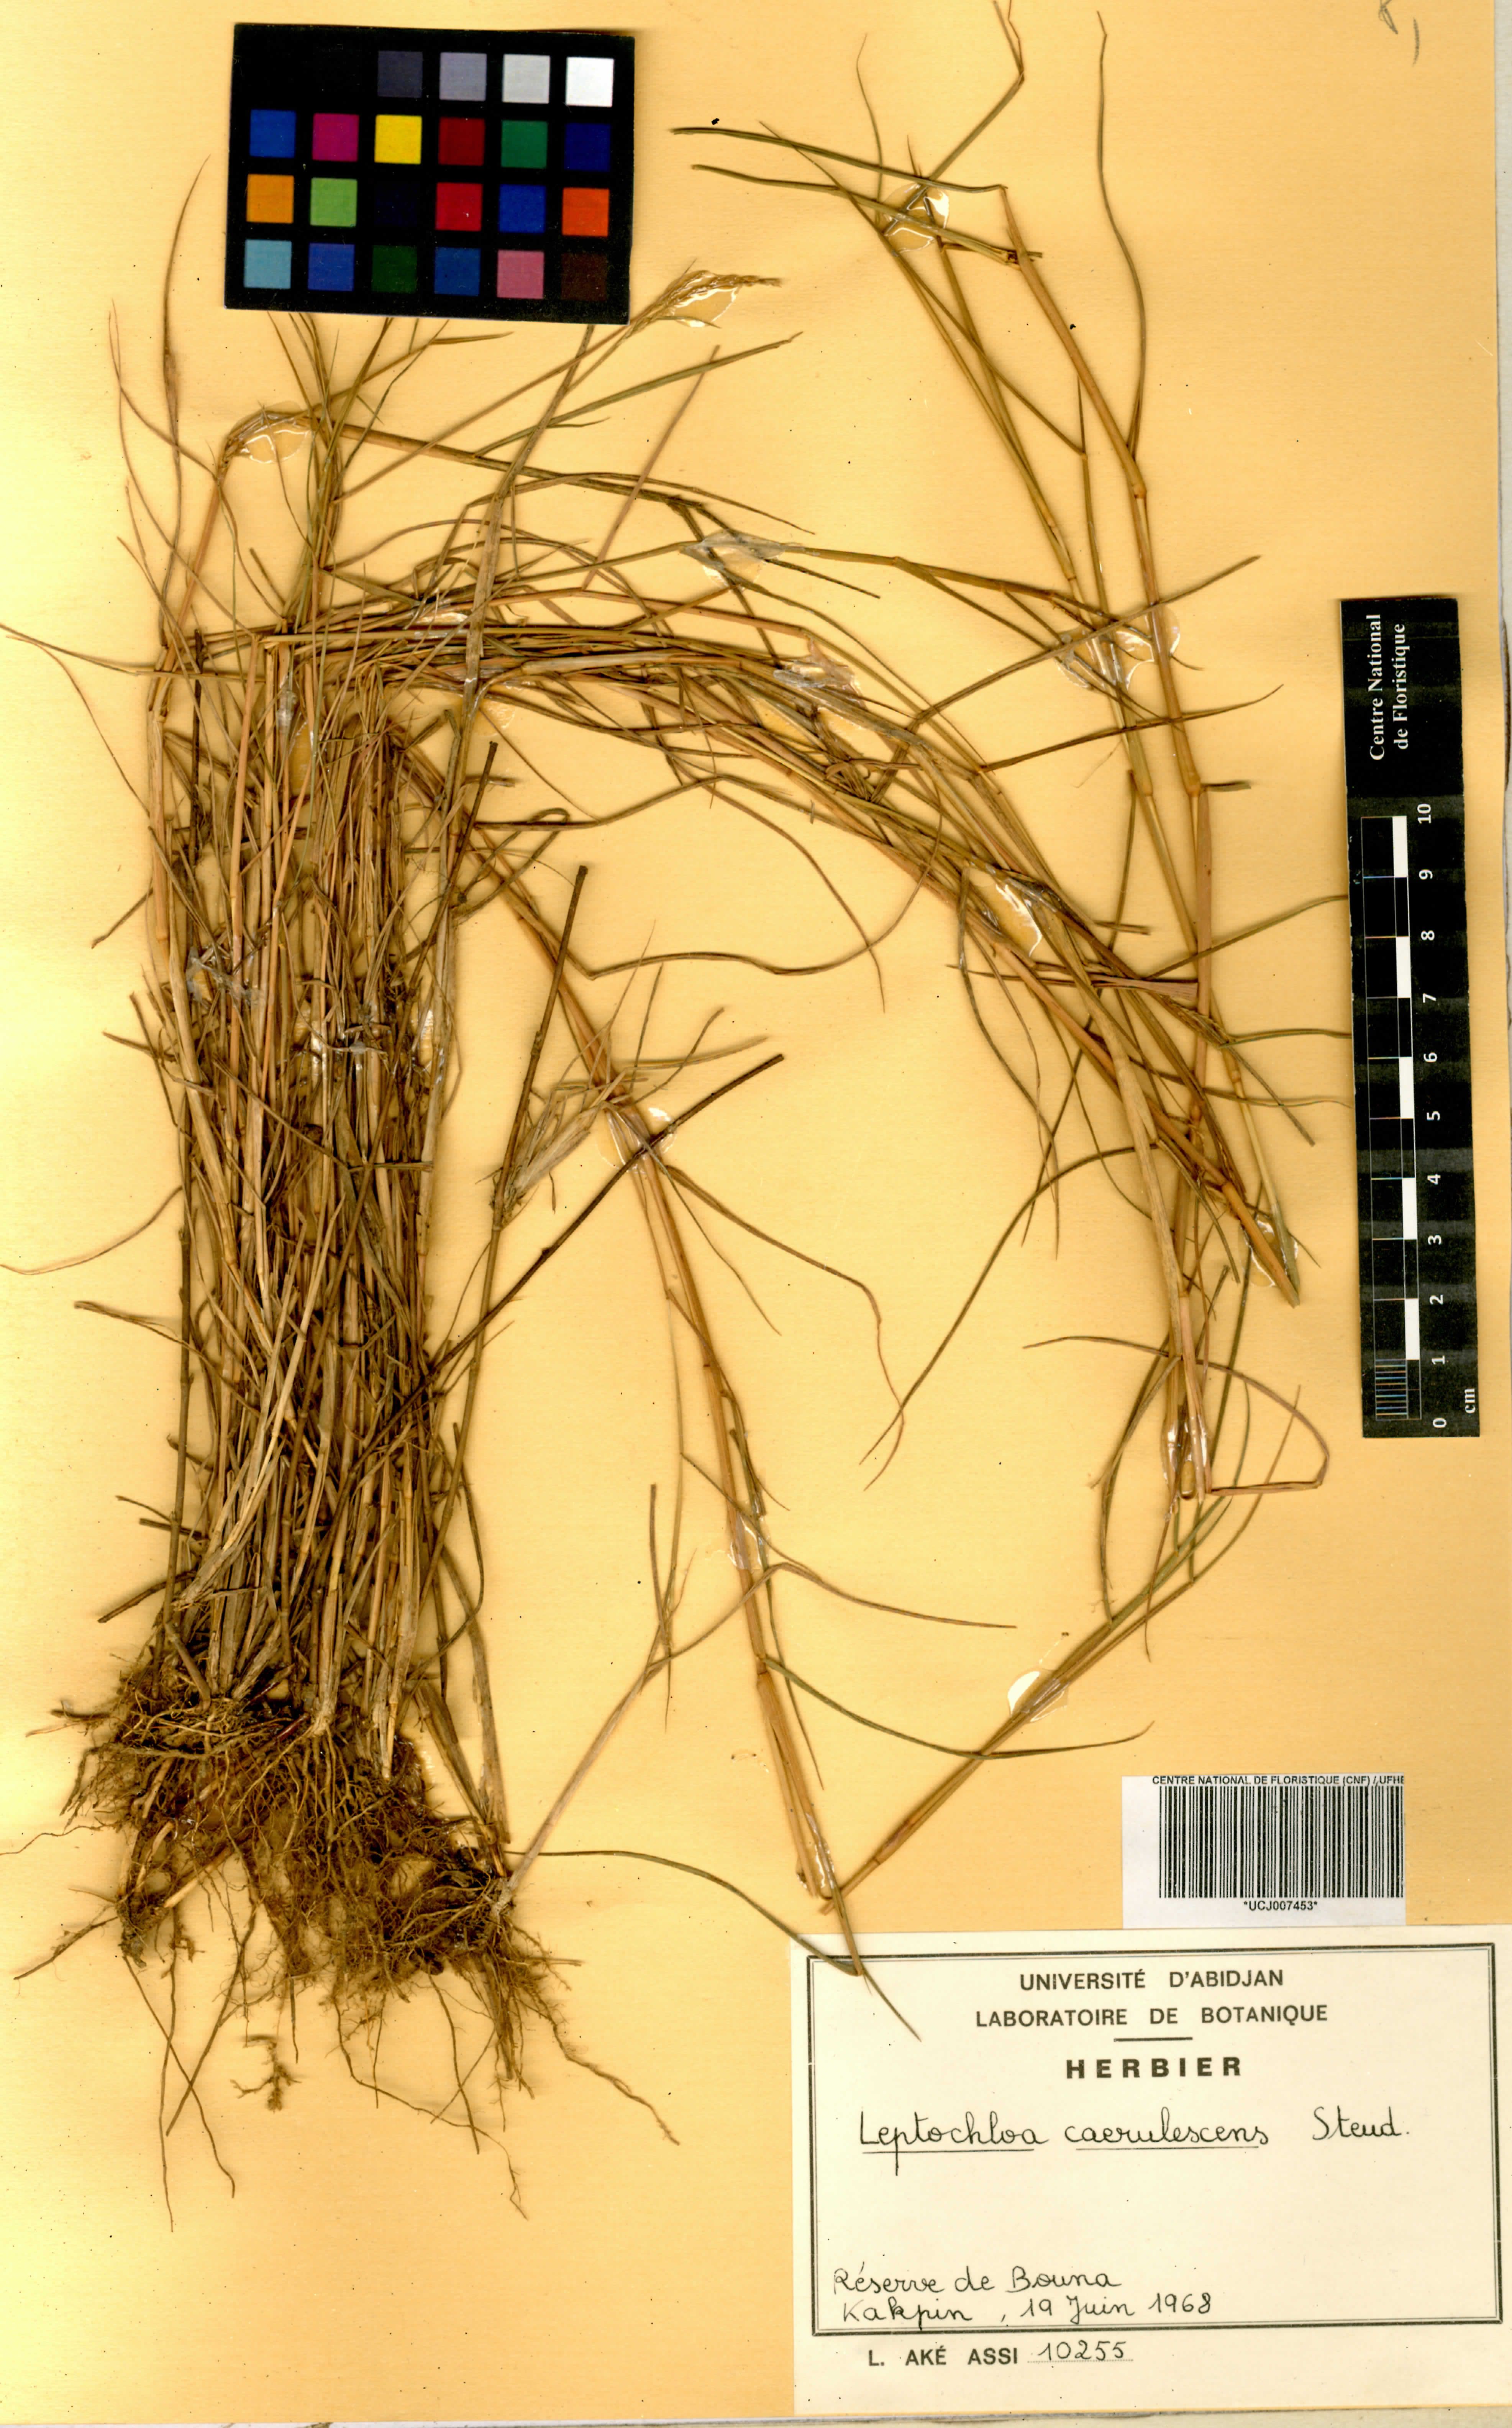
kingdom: Plantae
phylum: Tracheophyta
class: Liliopsida
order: Poales
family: Poaceae
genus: Leptochloa
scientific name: Leptochloa caerulescens
